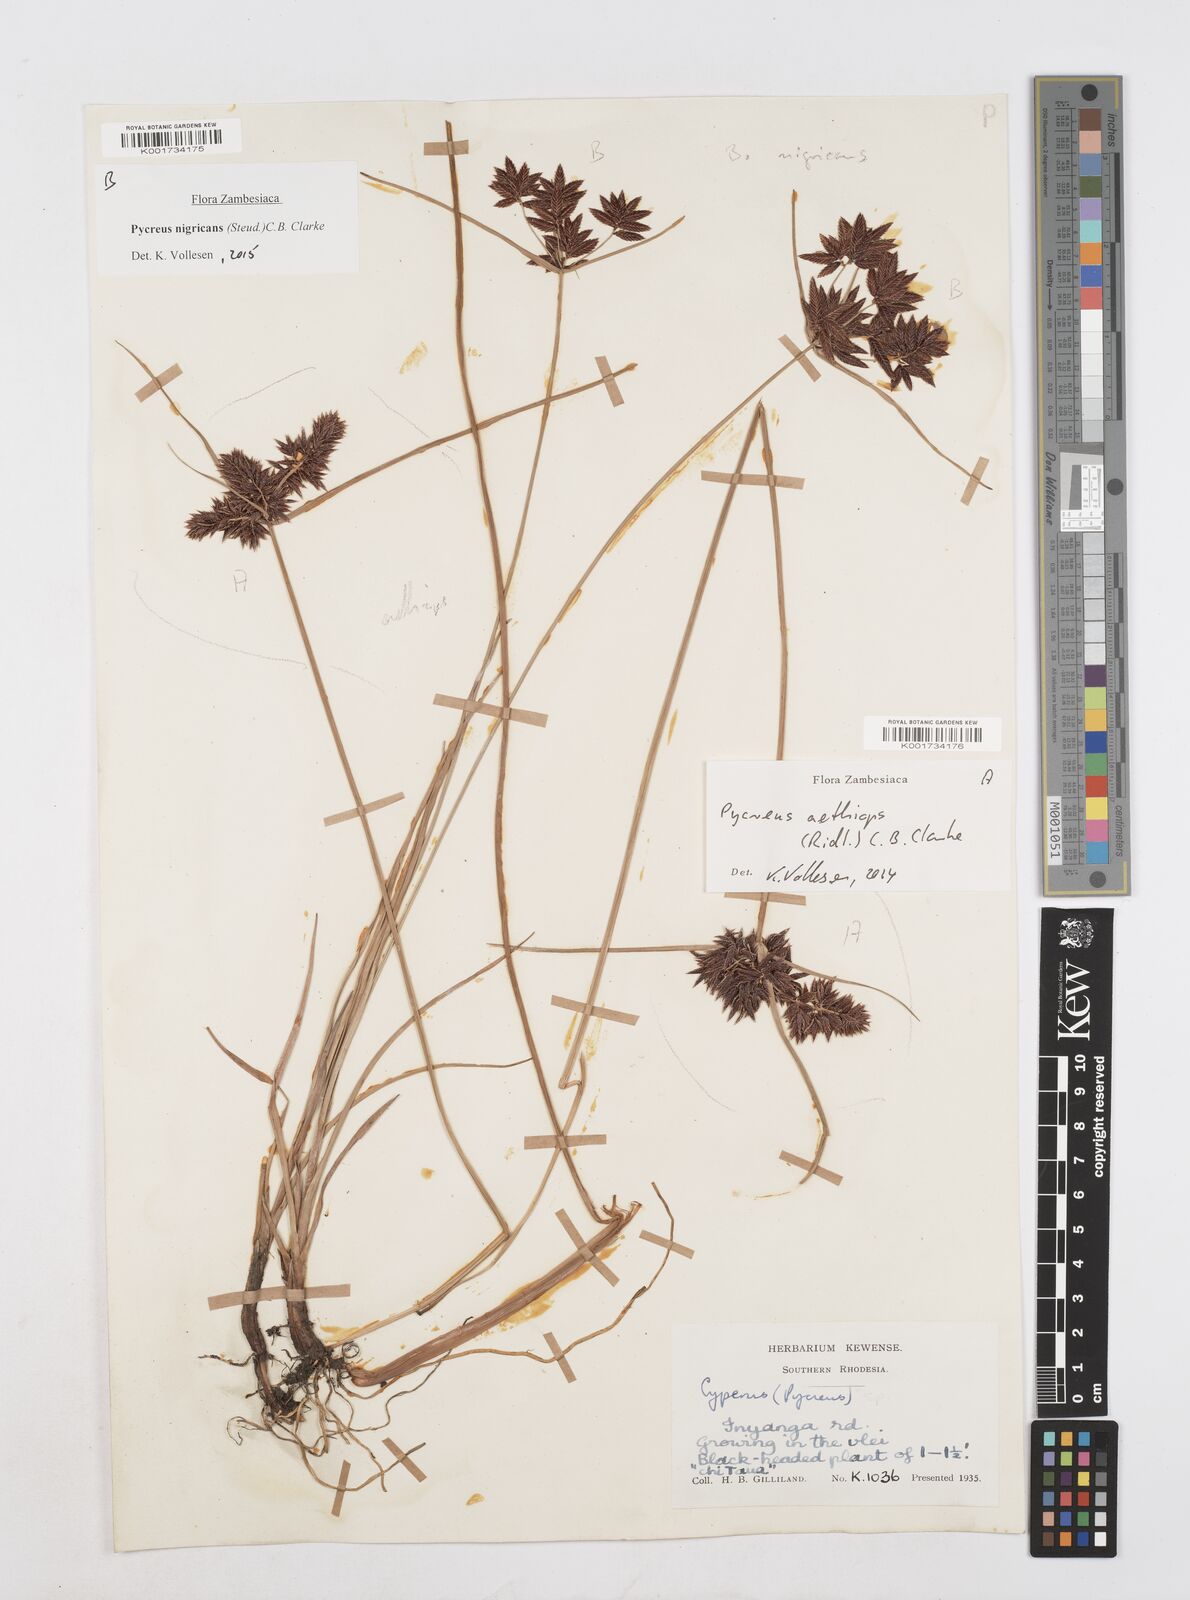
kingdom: Plantae
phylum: Tracheophyta
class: Liliopsida
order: Poales
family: Cyperaceae
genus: Cyperus
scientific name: Cyperus nigricans
